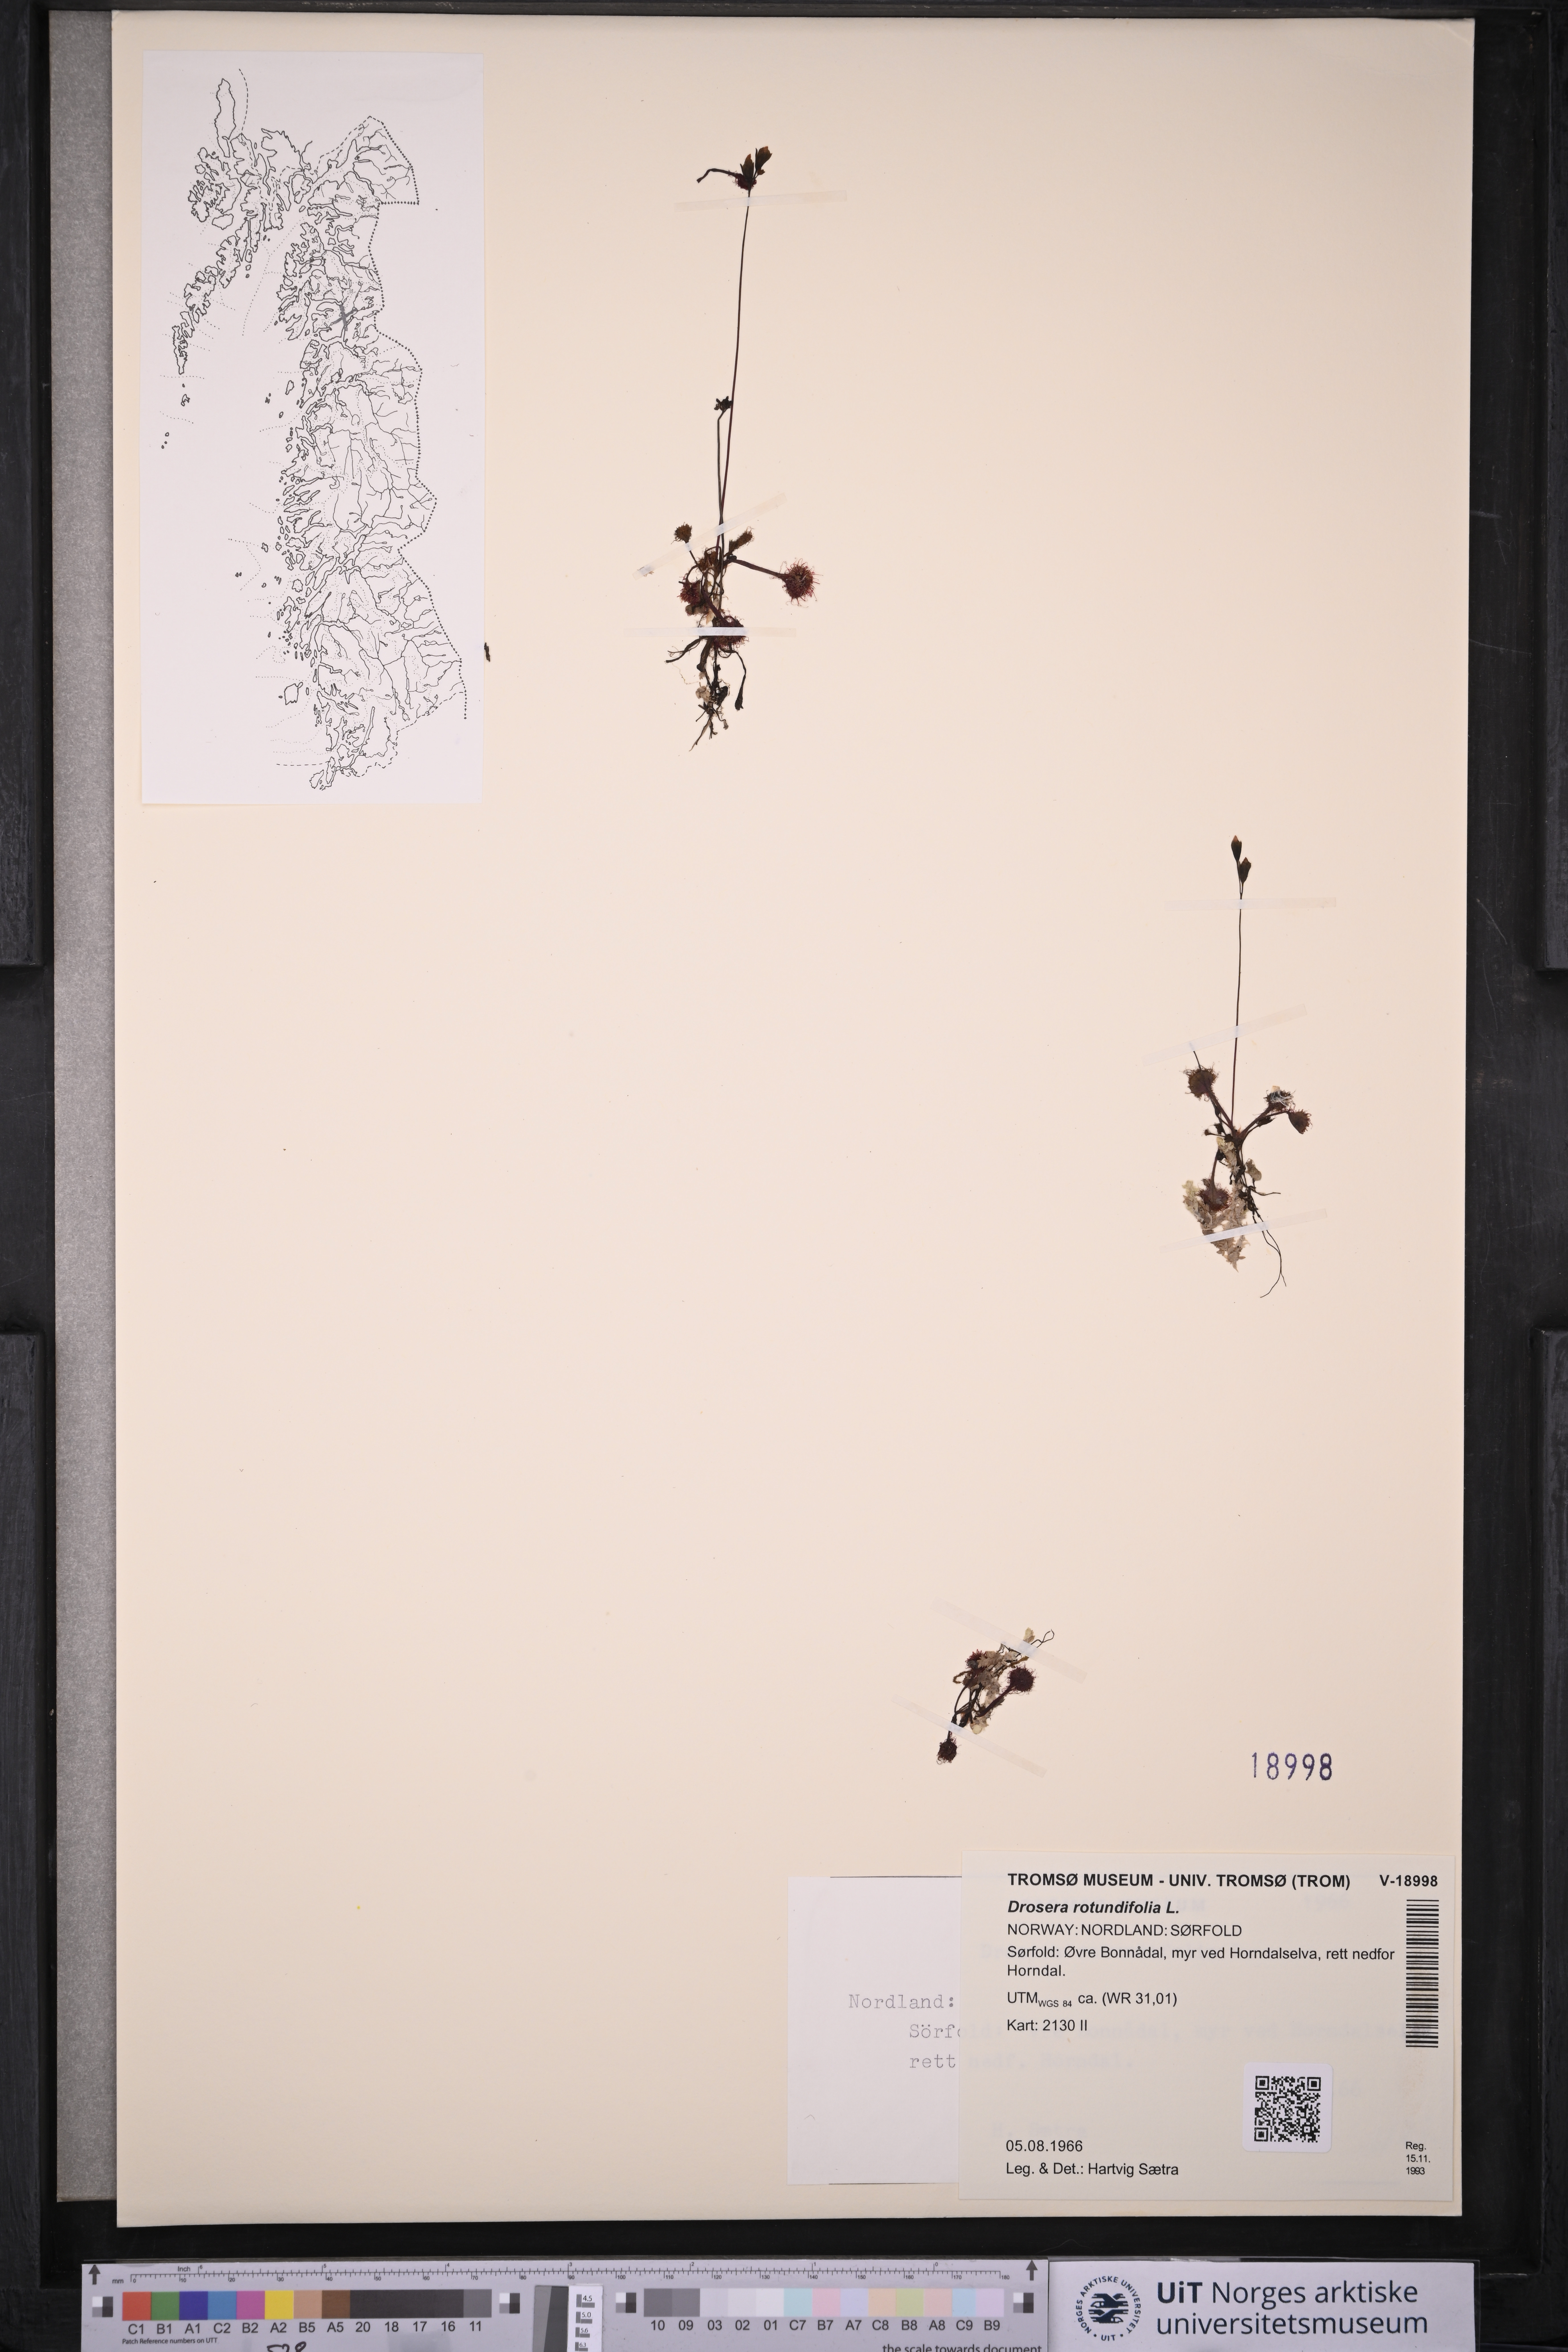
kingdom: Plantae
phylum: Tracheophyta
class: Magnoliopsida
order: Caryophyllales
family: Droseraceae
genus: Drosera
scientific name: Drosera rotundifolia
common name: Round-leaved sundew
